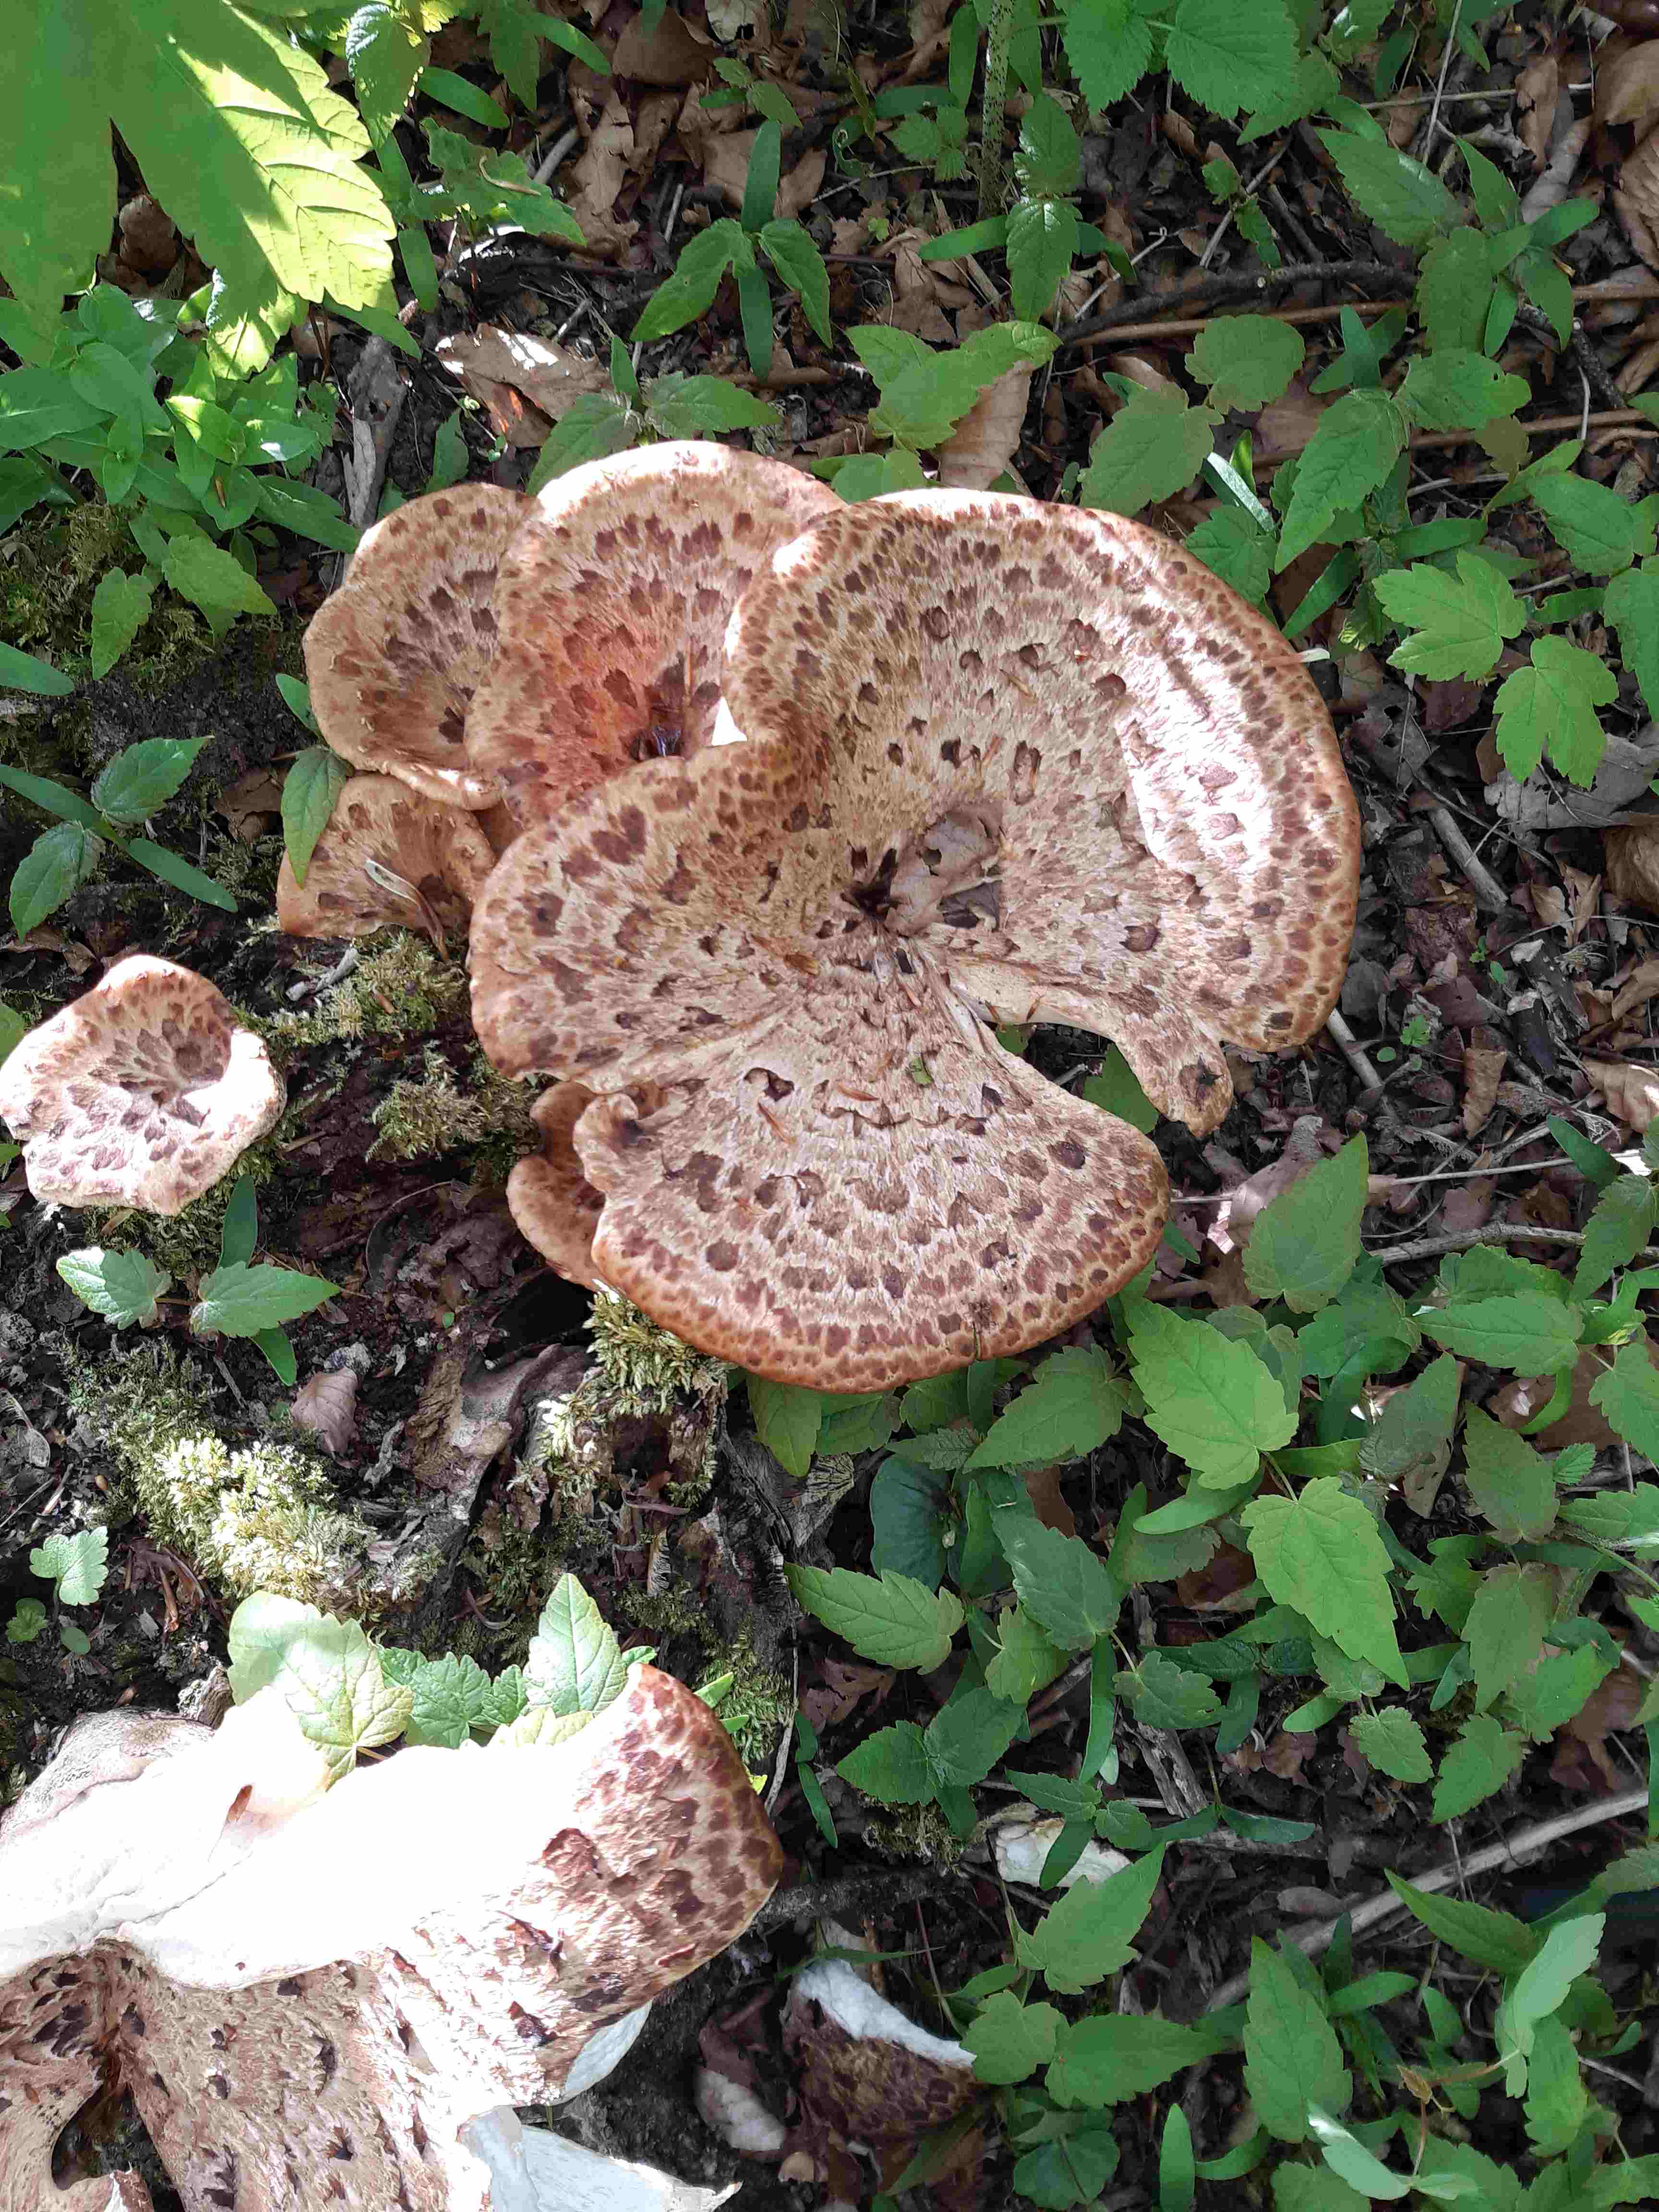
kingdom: Fungi
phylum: Basidiomycota
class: Agaricomycetes
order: Polyporales
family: Polyporaceae
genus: Cerioporus
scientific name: Cerioporus squamosus
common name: skællet stilkporesvamp
